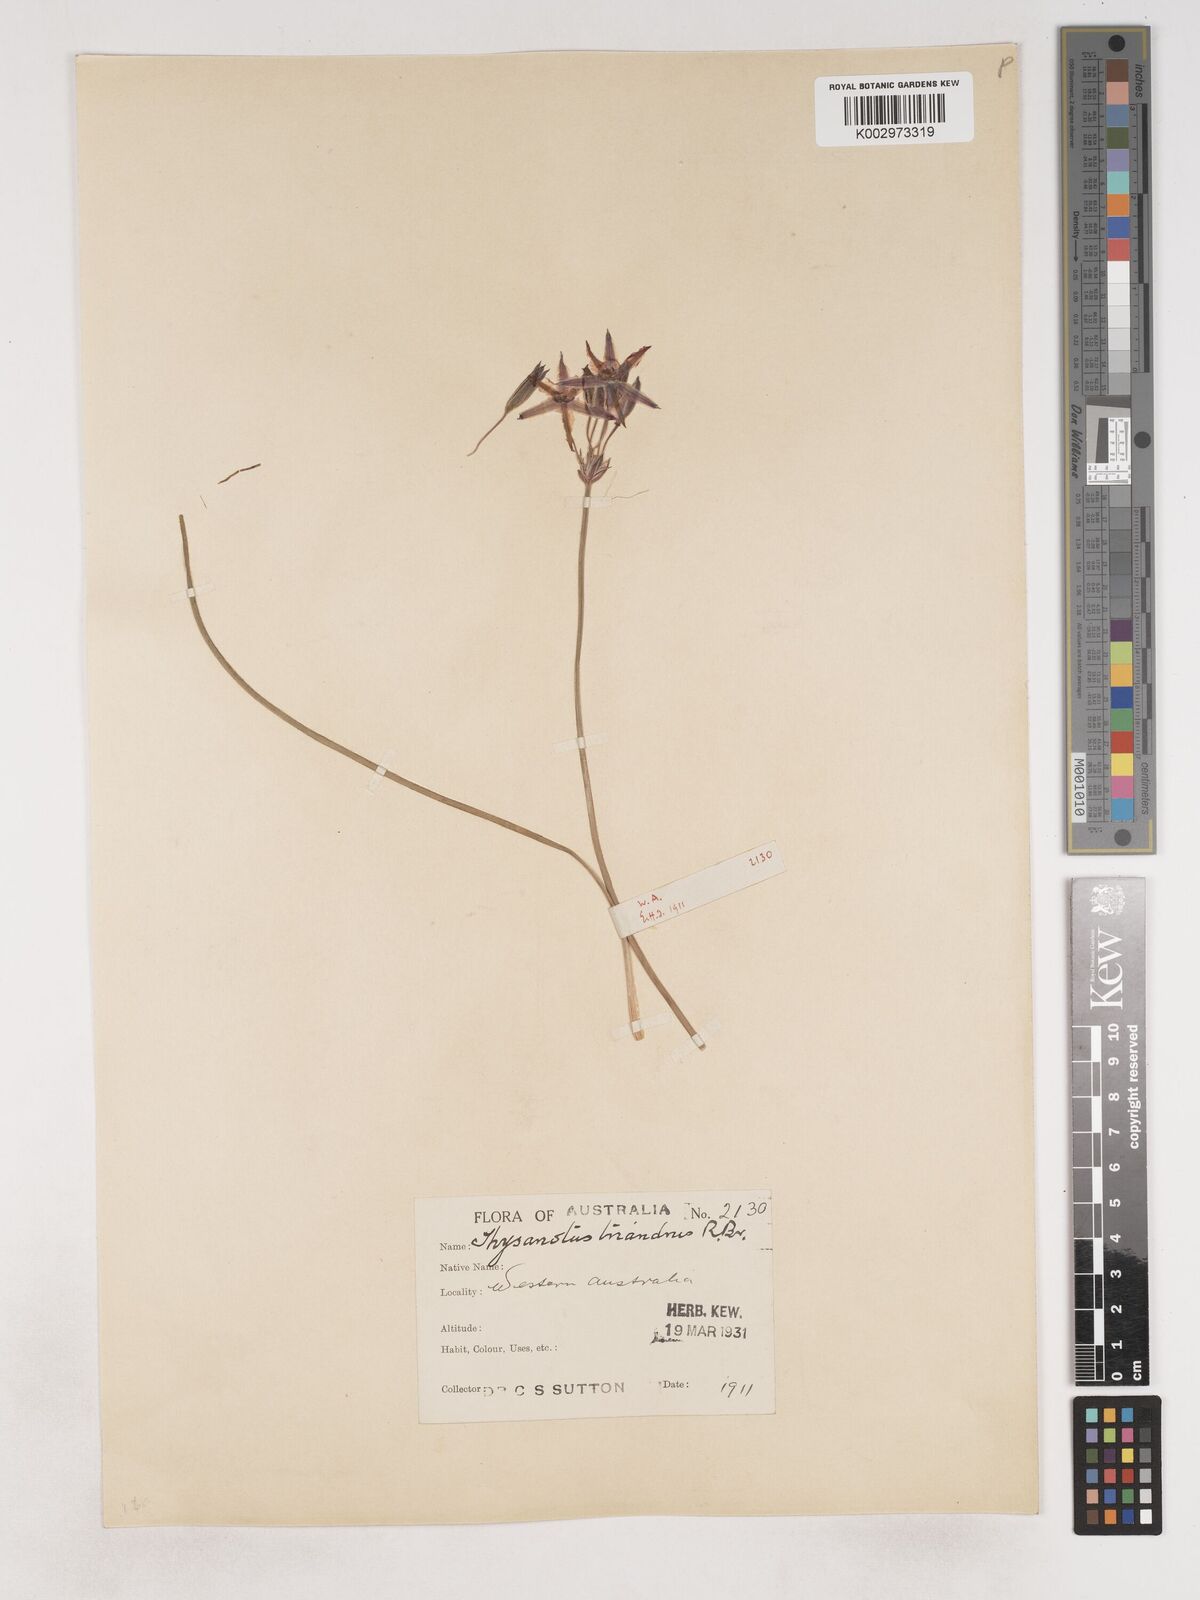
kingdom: Plantae
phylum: Tracheophyta
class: Liliopsida
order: Asparagales
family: Asparagaceae
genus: Thysanotus
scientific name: Thysanotus triandrus
